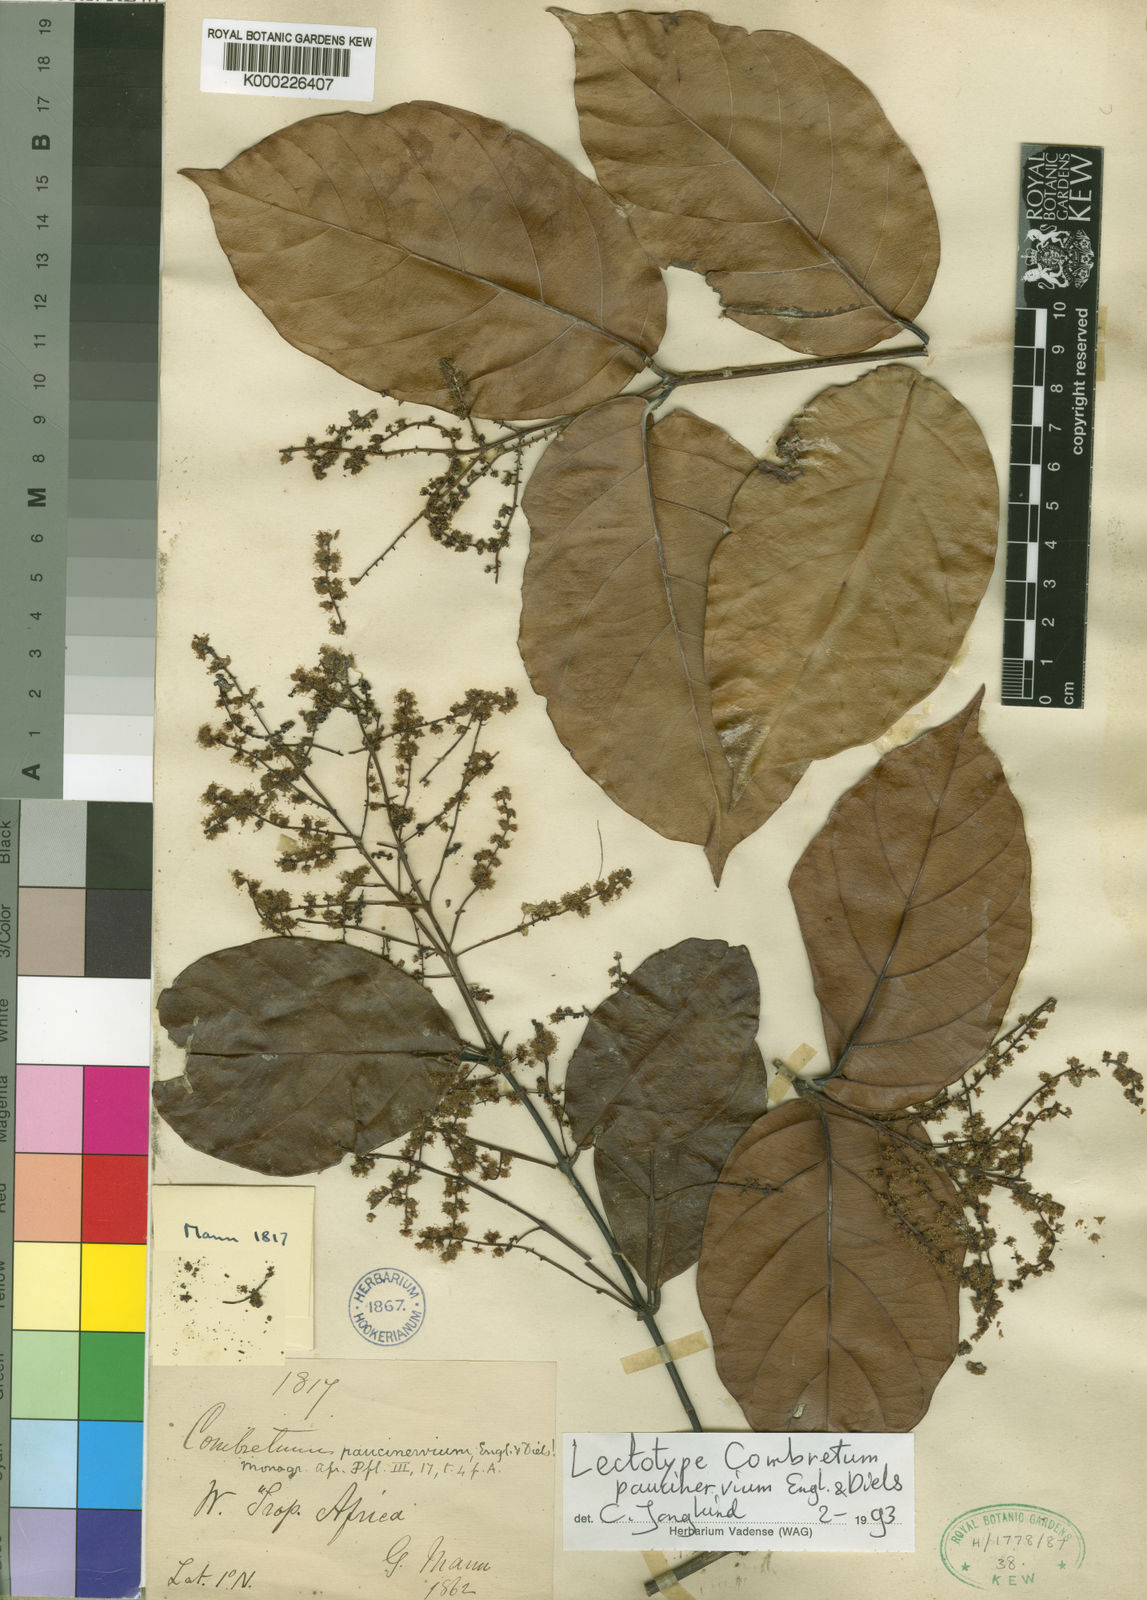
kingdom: Plantae
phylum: Tracheophyta
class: Magnoliopsida
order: Myrtales
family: Combretaceae
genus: Combretum
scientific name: Combretum paucinervium
